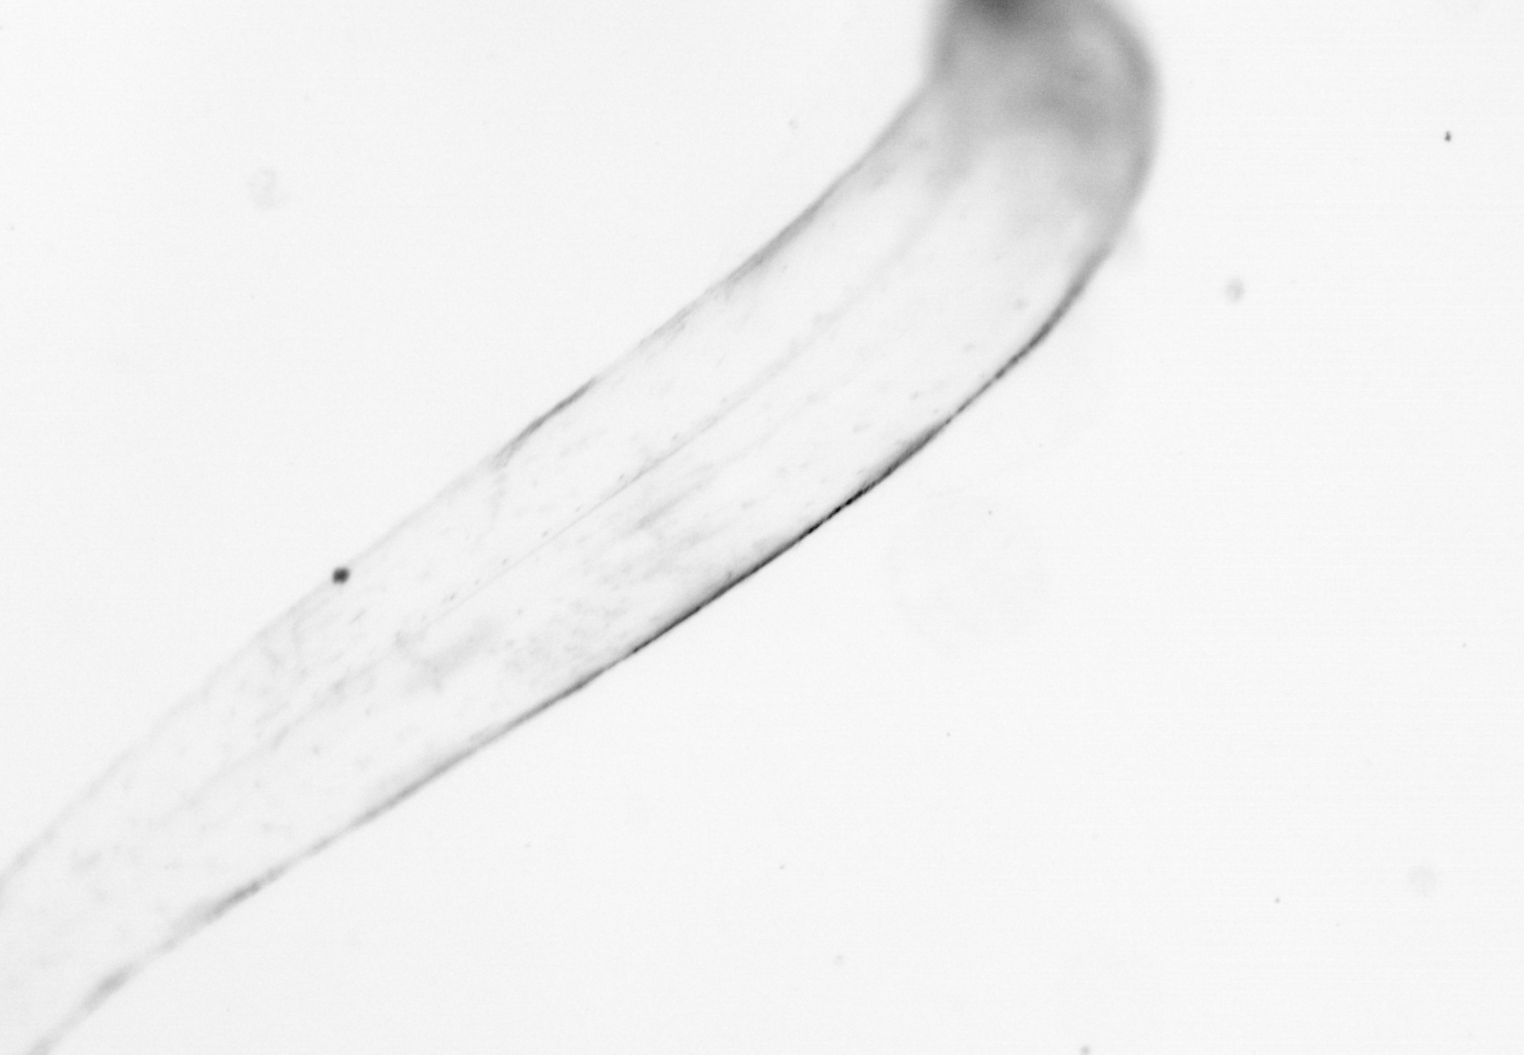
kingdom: Animalia
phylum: Chaetognatha
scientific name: Chaetognatha
